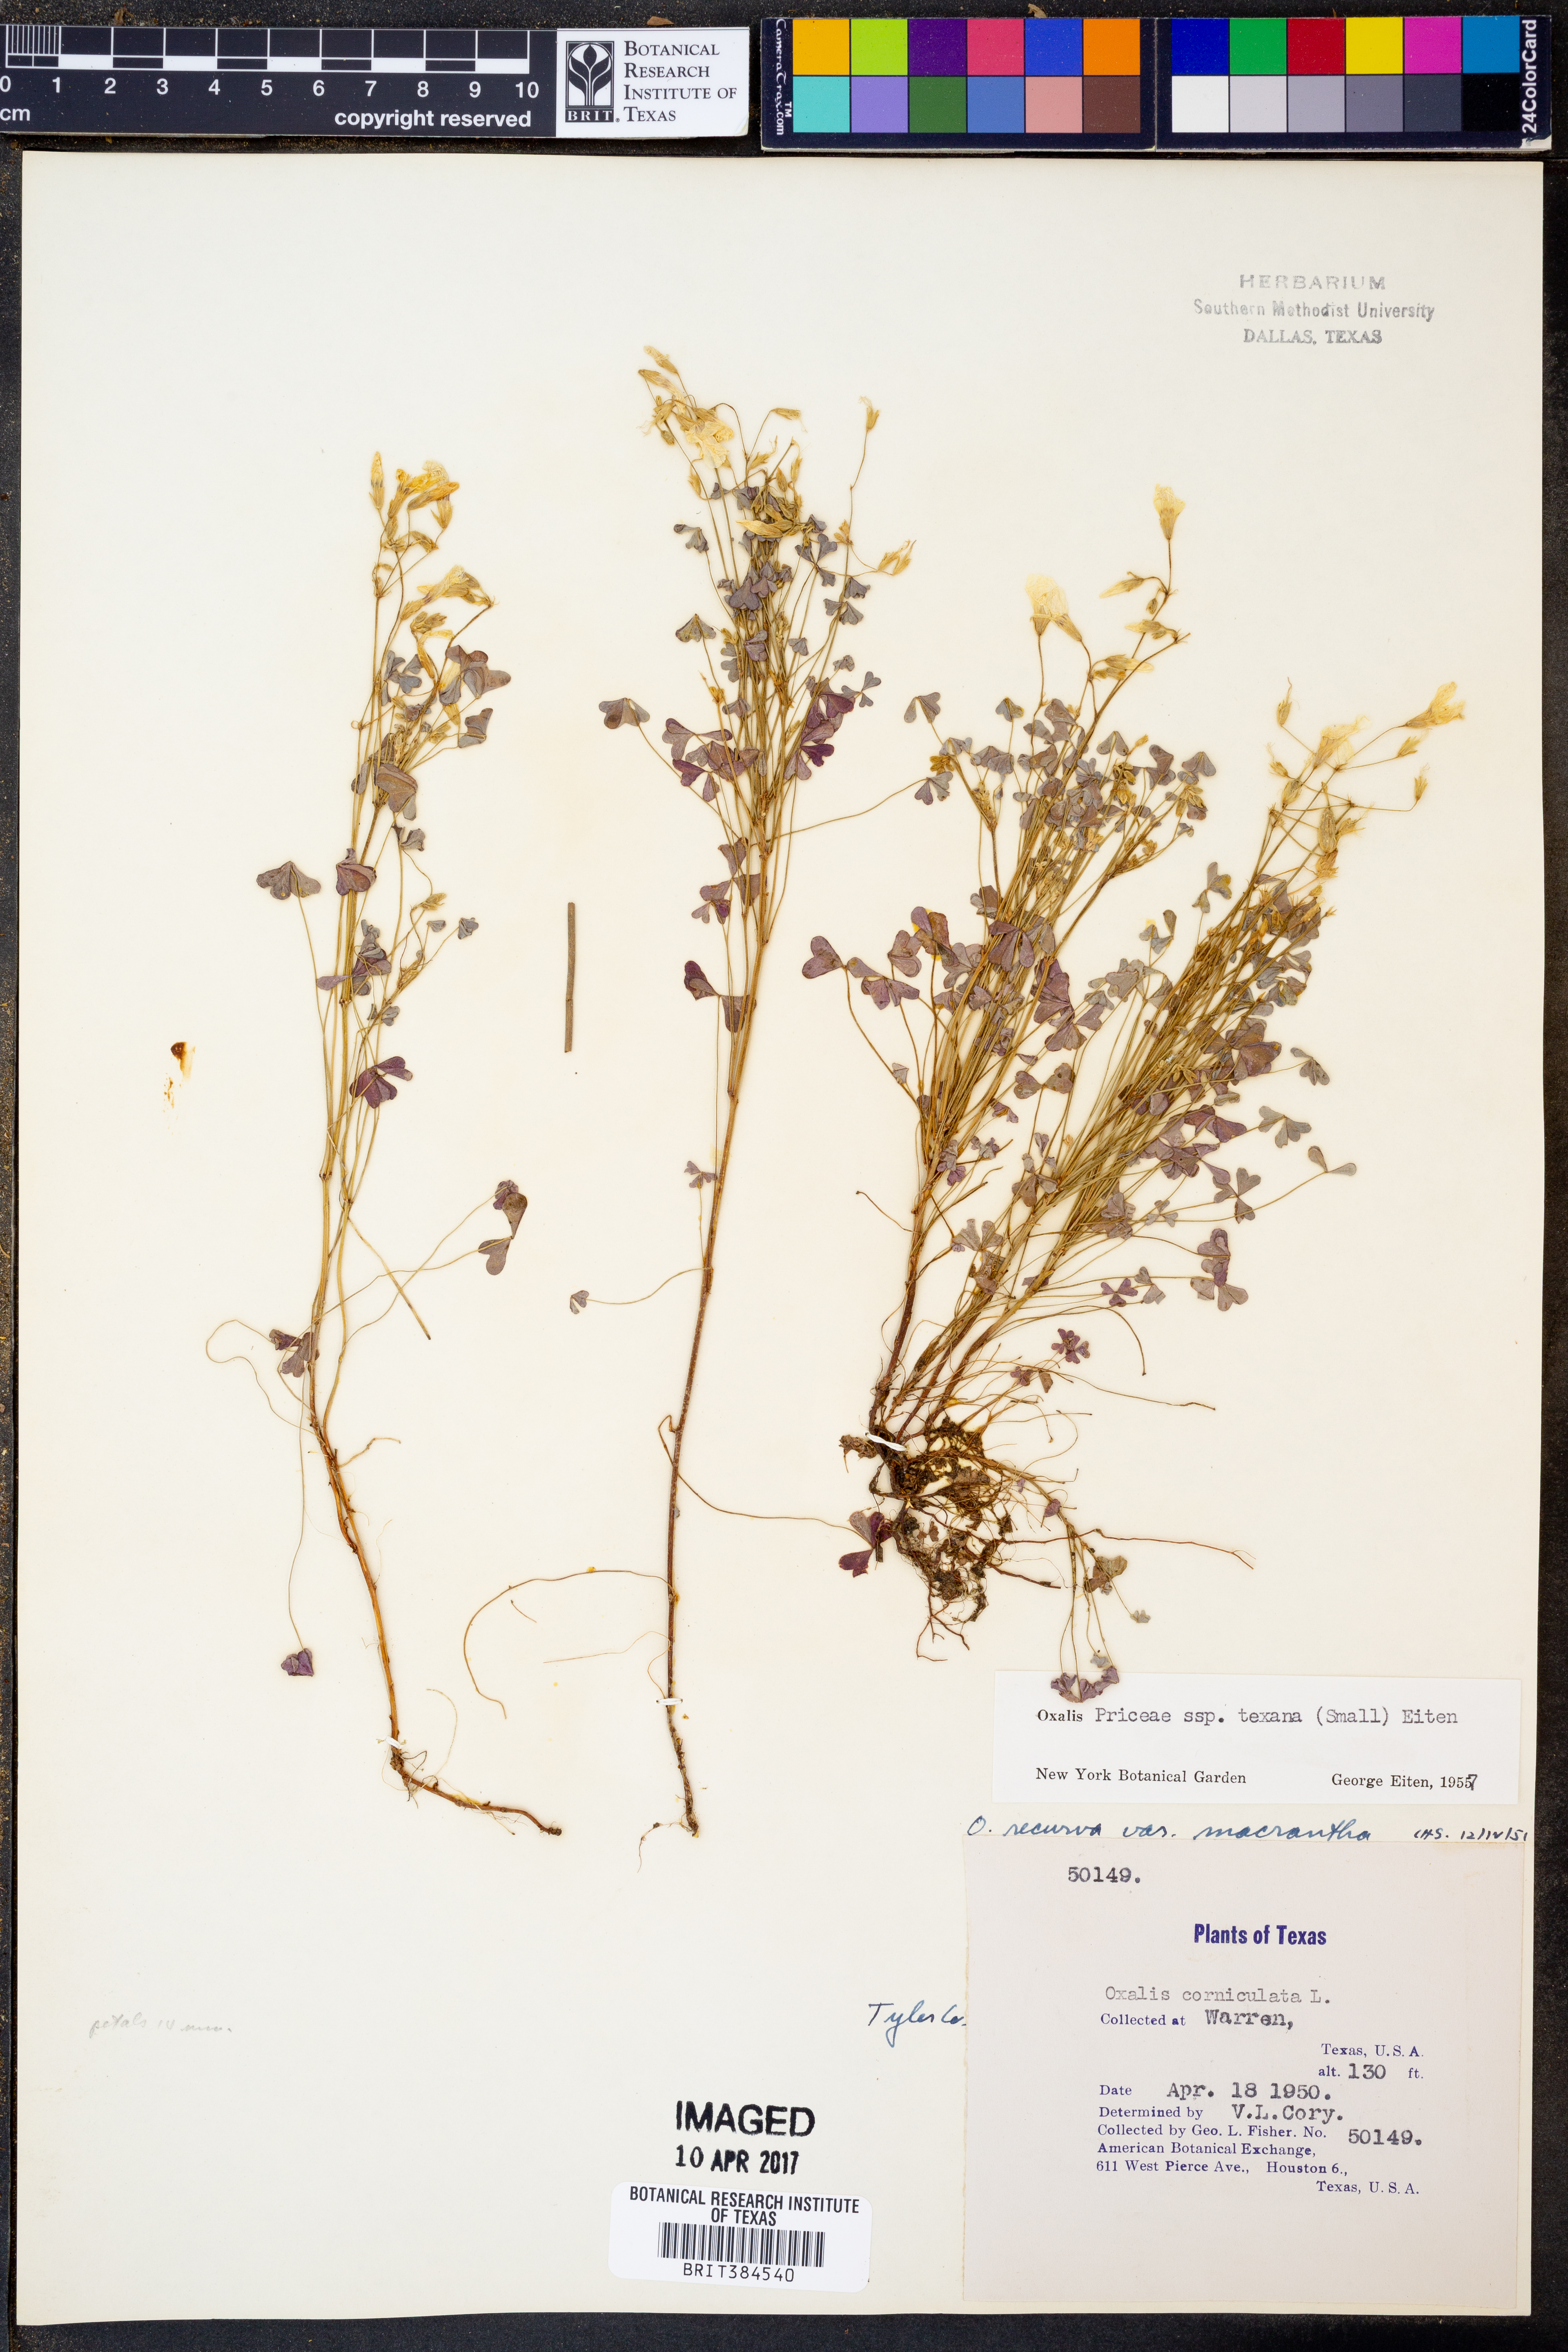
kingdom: Plantae
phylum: Tracheophyta
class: Magnoliopsida
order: Oxalidales
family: Oxalidaceae
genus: Oxalis
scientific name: Oxalis texana
